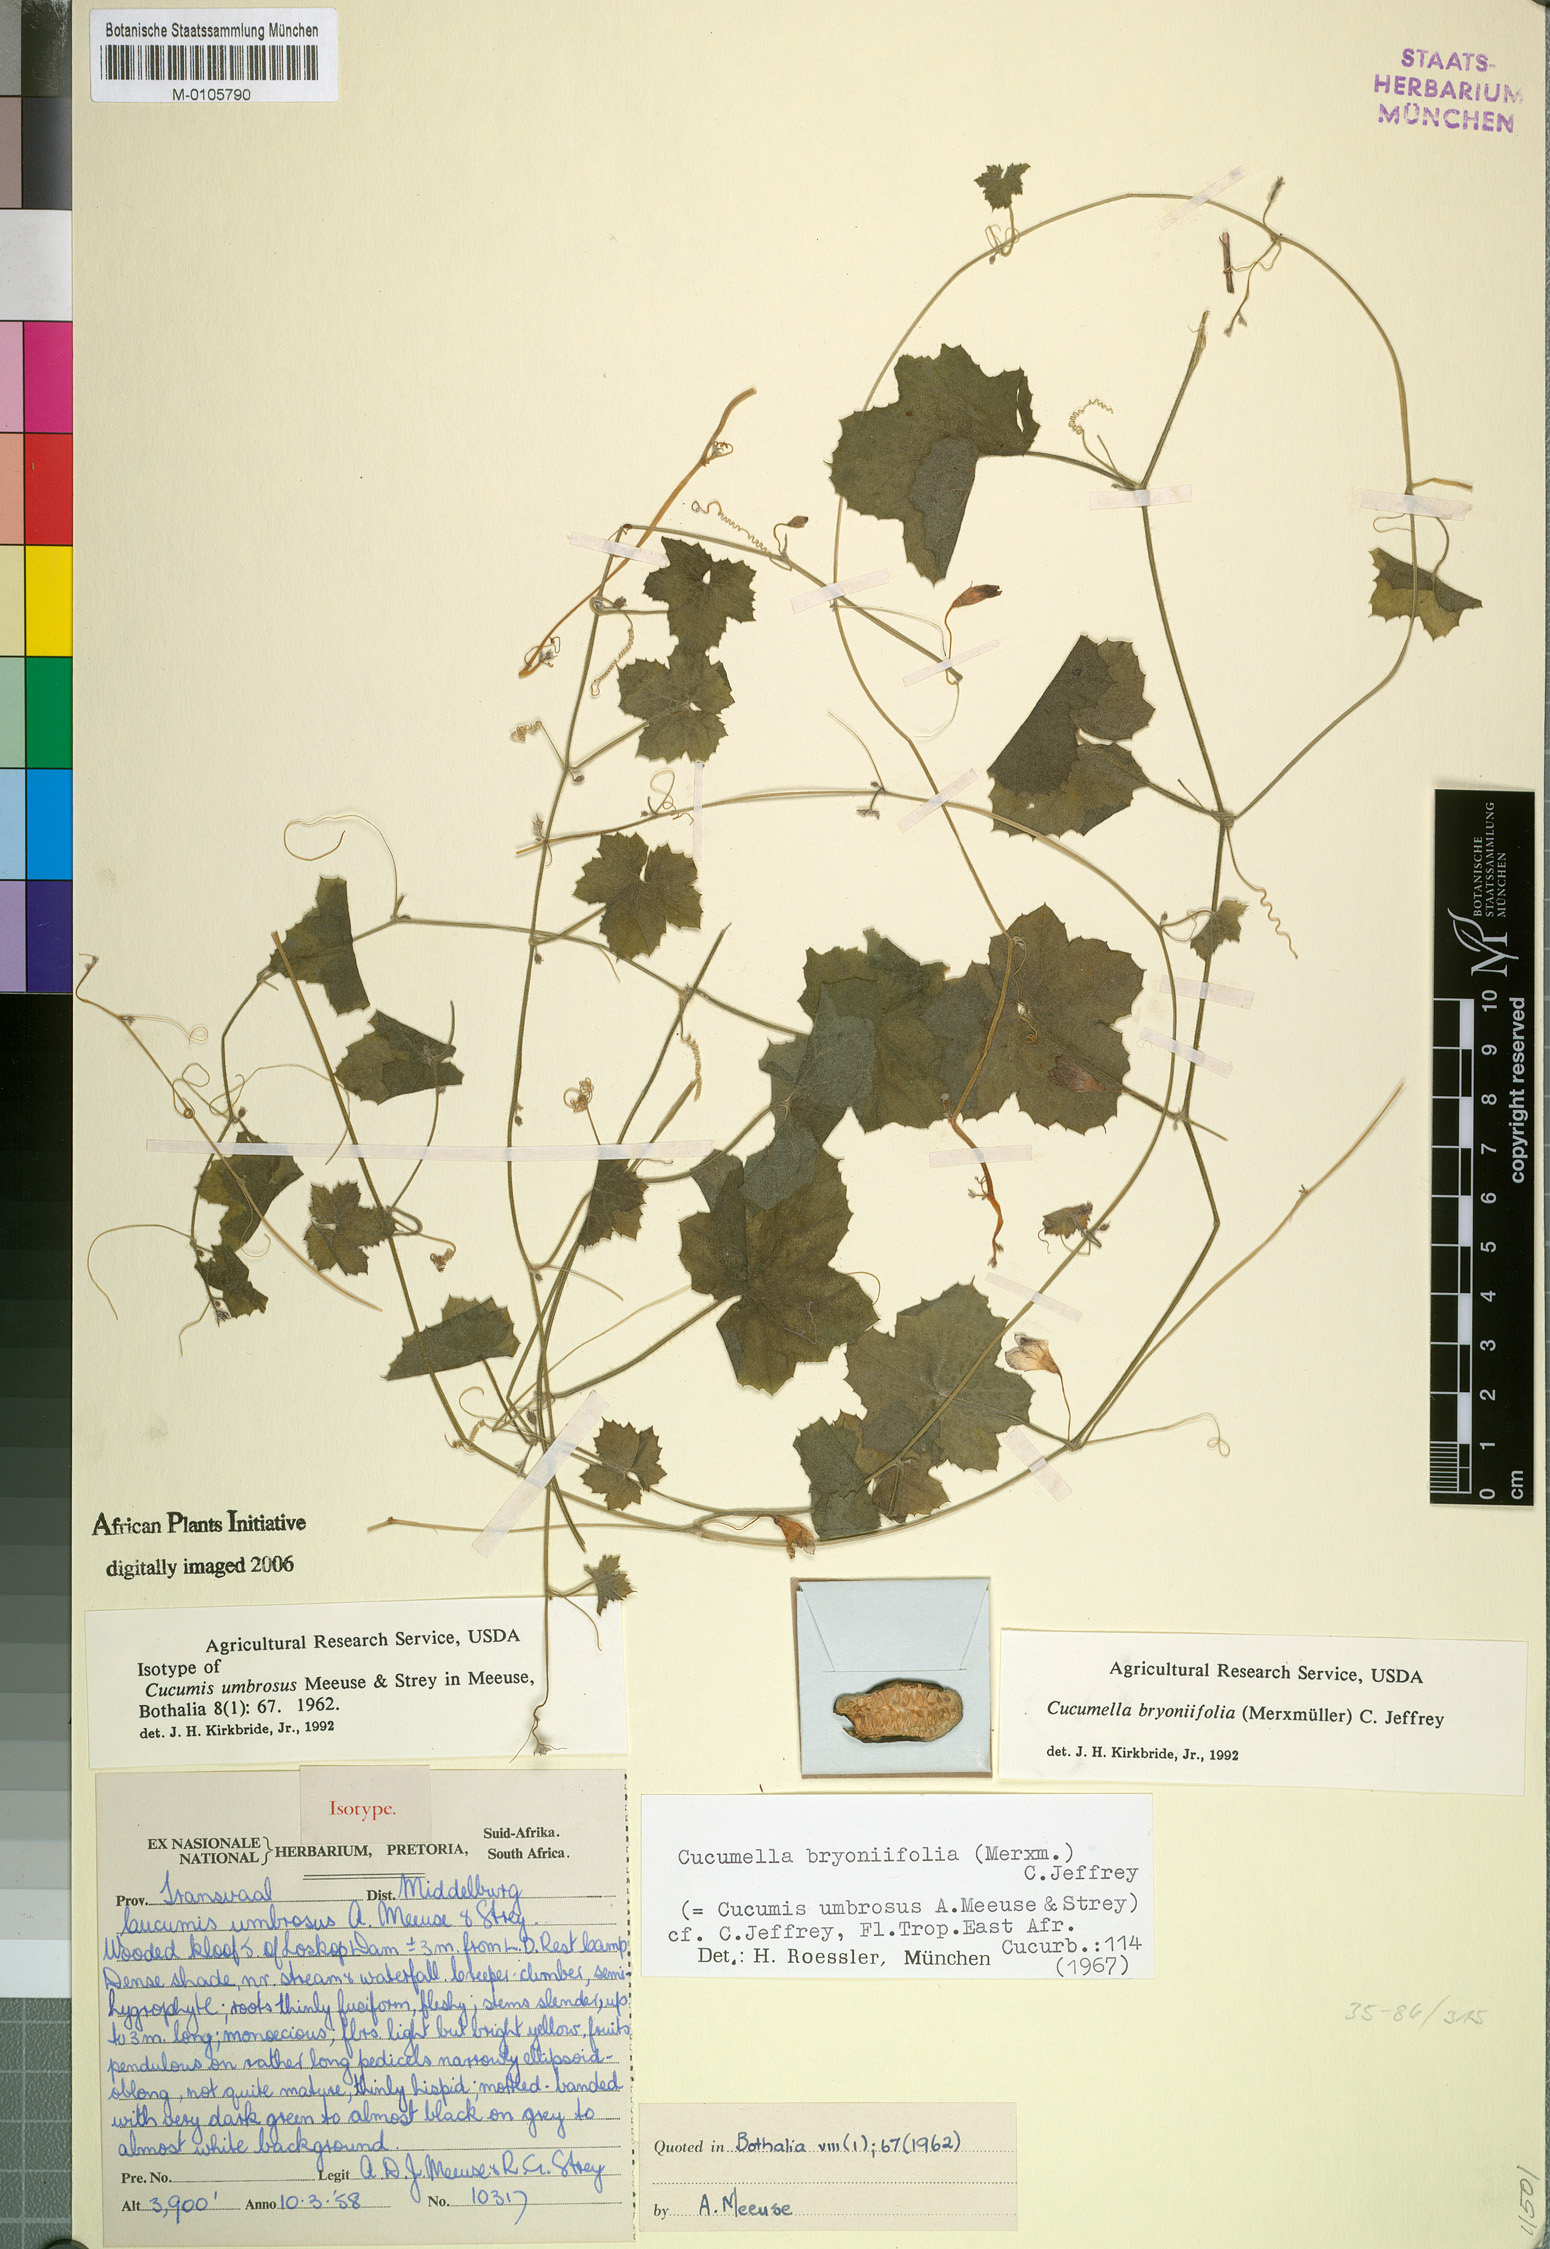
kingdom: Plantae
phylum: Tracheophyta
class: Magnoliopsida
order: Cucurbitales
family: Cucurbitaceae
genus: Cucumis
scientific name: Cucumis bryoniifolius
